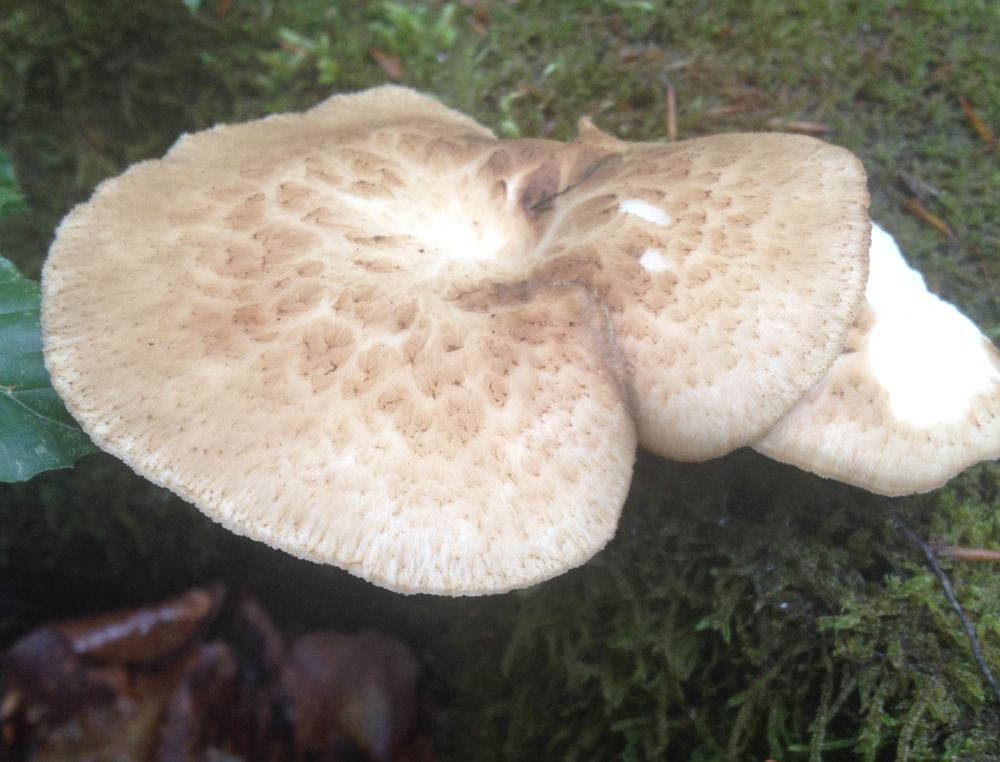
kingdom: Fungi
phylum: Basidiomycota
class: Agaricomycetes
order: Polyporales
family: Polyporaceae
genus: Polyporus
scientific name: Polyporus tuberaster
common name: knoldet stilkporesvamp
